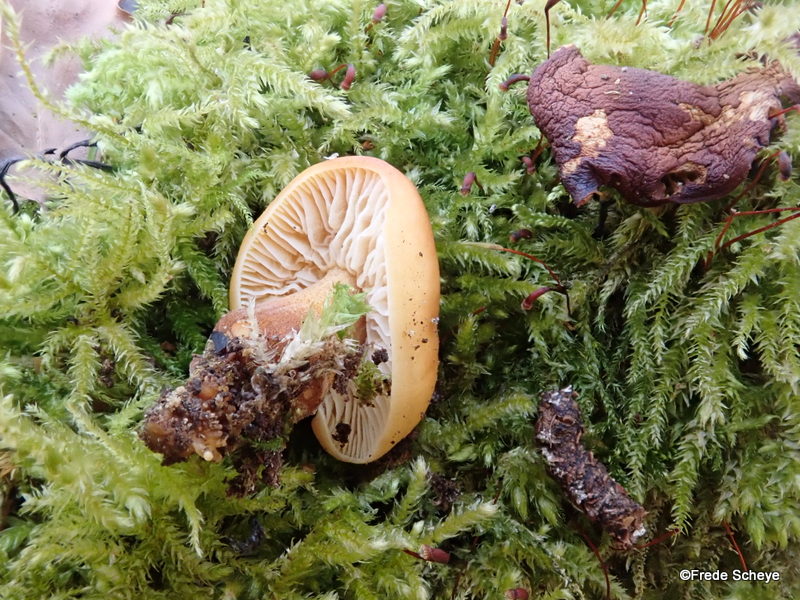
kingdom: Fungi
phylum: Basidiomycota
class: Agaricomycetes
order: Agaricales
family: Physalacriaceae
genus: Flammulina
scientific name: Flammulina velutipes
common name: gul fløjlsfod
